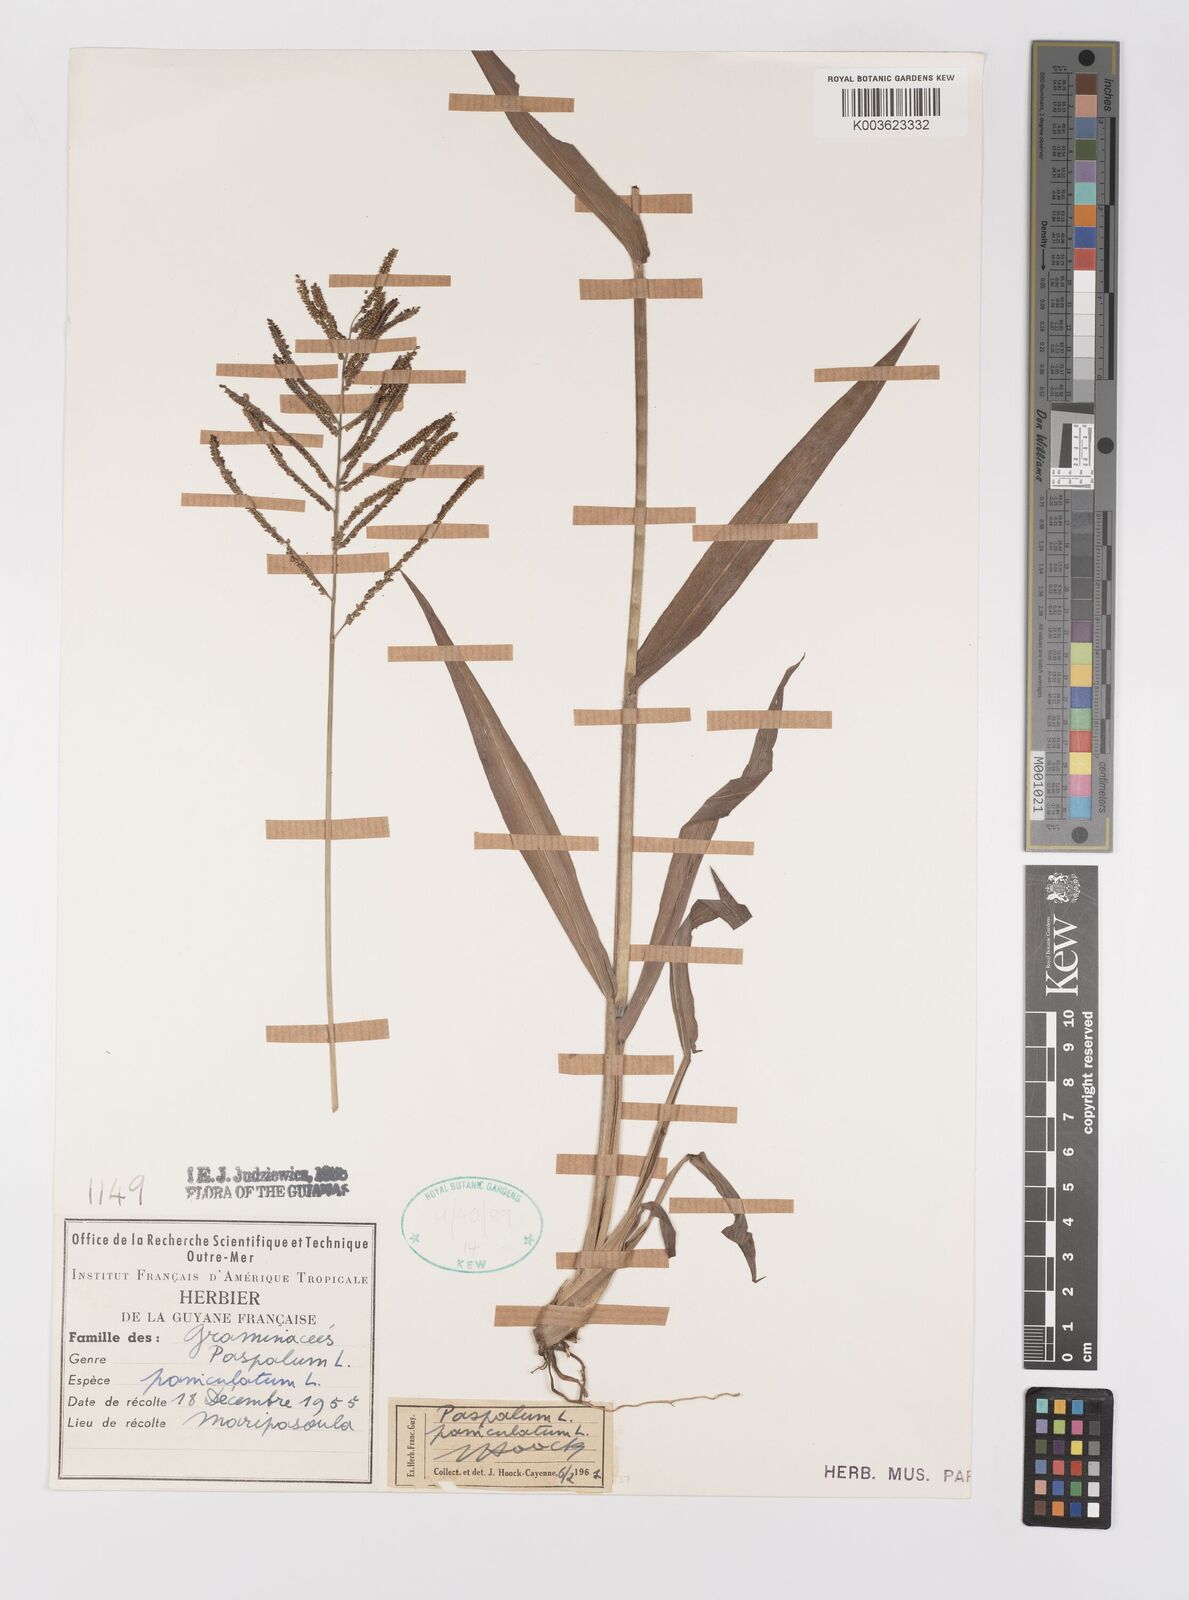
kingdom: Plantae
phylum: Tracheophyta
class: Liliopsida
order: Poales
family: Poaceae
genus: Paspalum
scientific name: Paspalum paniculatum
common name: Arrocillo
